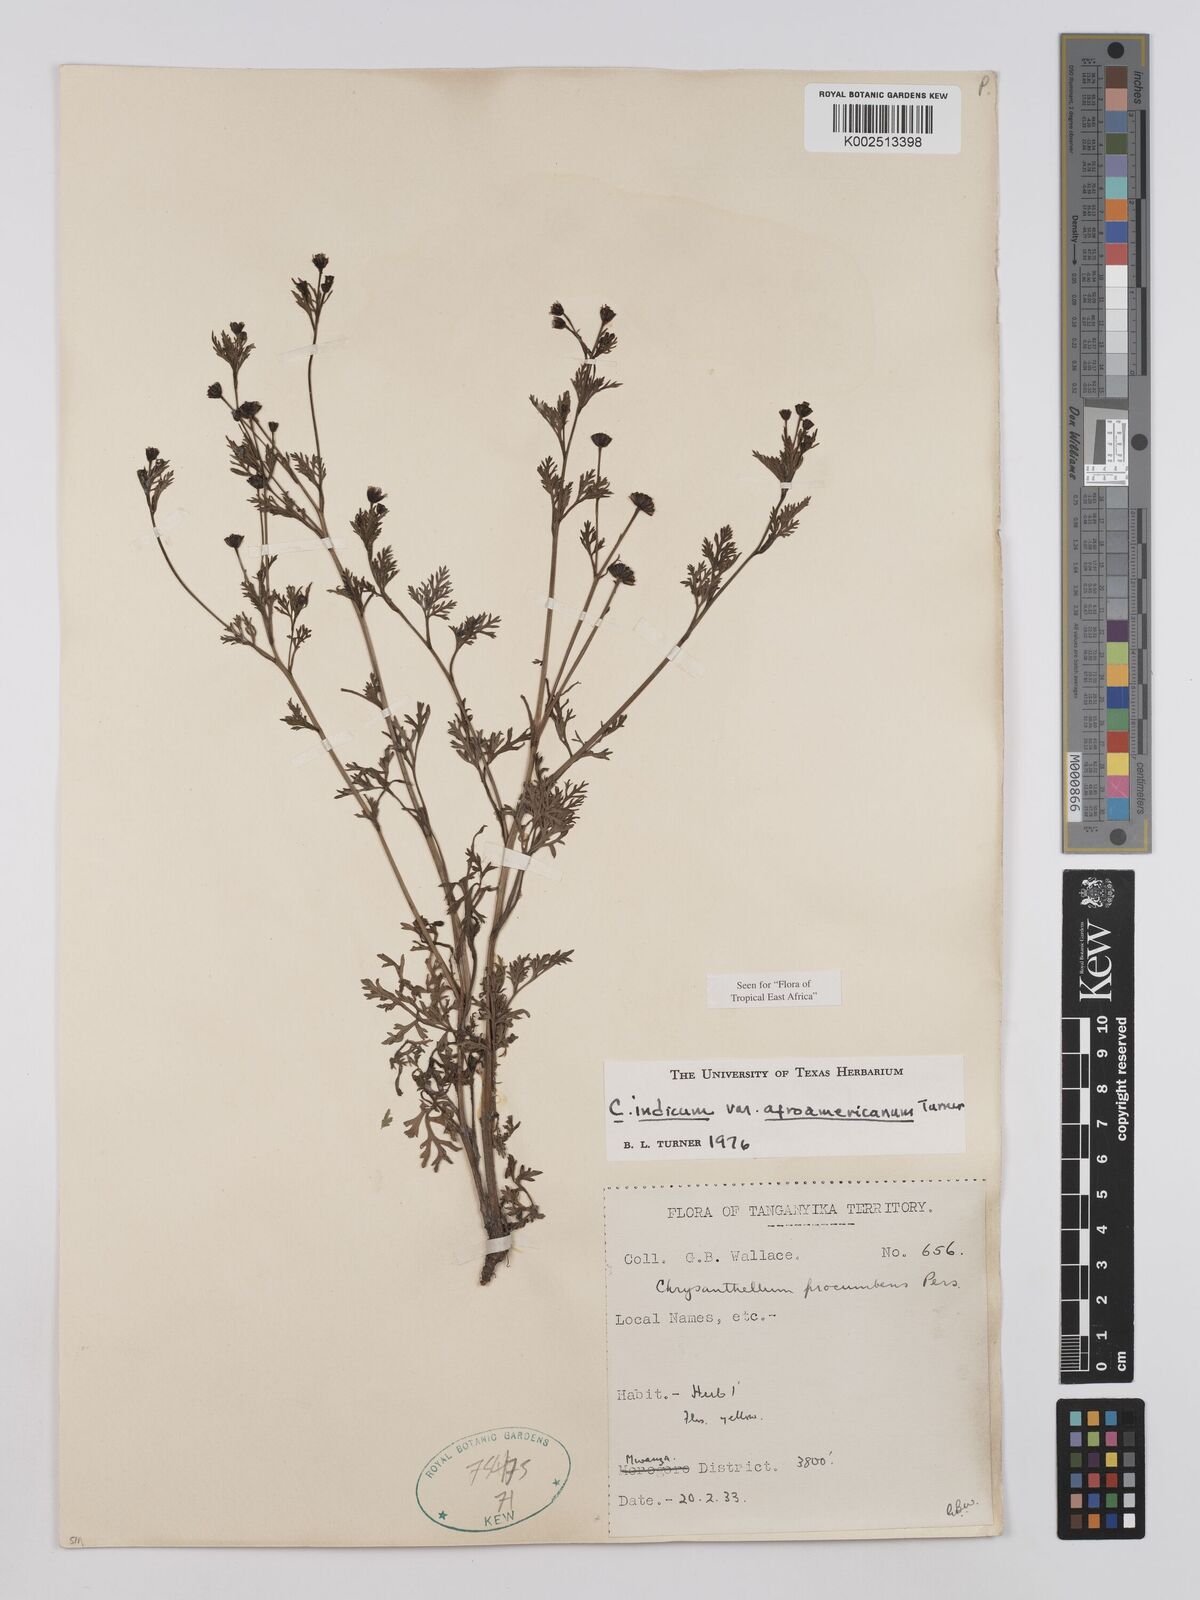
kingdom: Plantae
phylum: Tracheophyta
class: Magnoliopsida
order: Asterales
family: Asteraceae
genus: Chrysanthellum
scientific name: Chrysanthellum indicum
